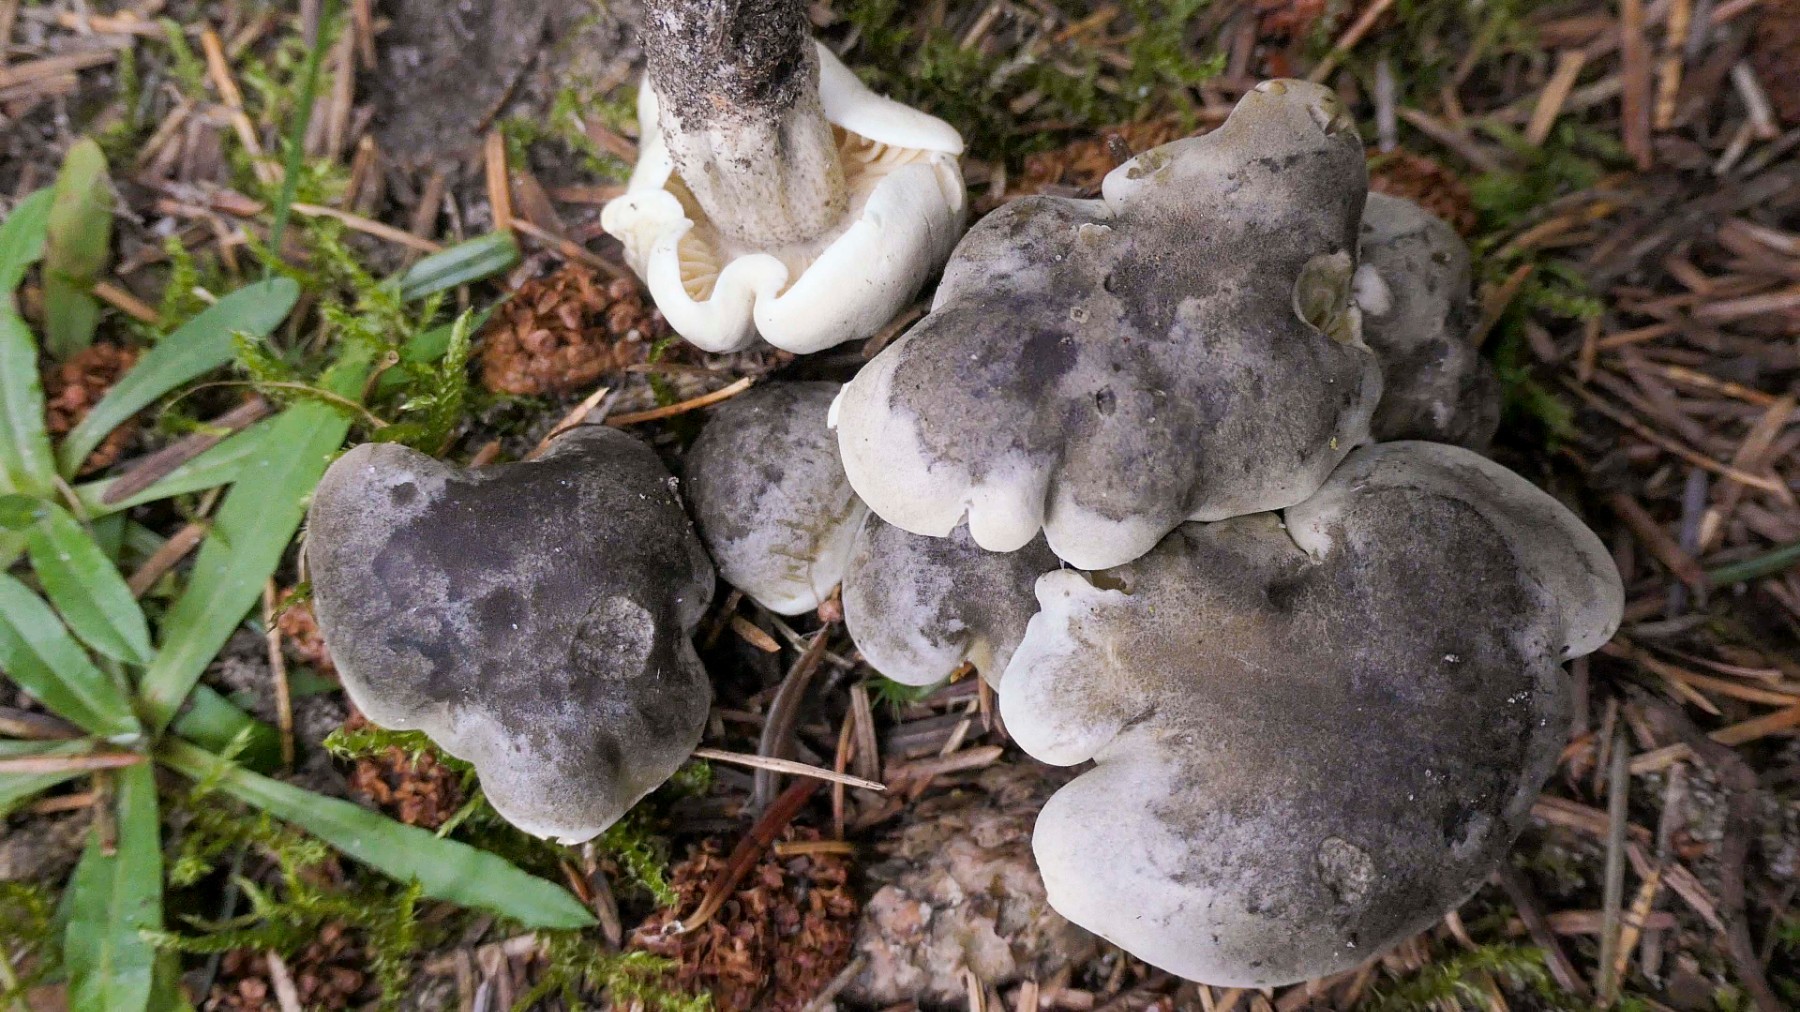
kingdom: Fungi
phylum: Basidiomycota
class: Agaricomycetes
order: Agaricales
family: Tricholomataceae
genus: Tricholoma
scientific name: Tricholoma saponaceum
